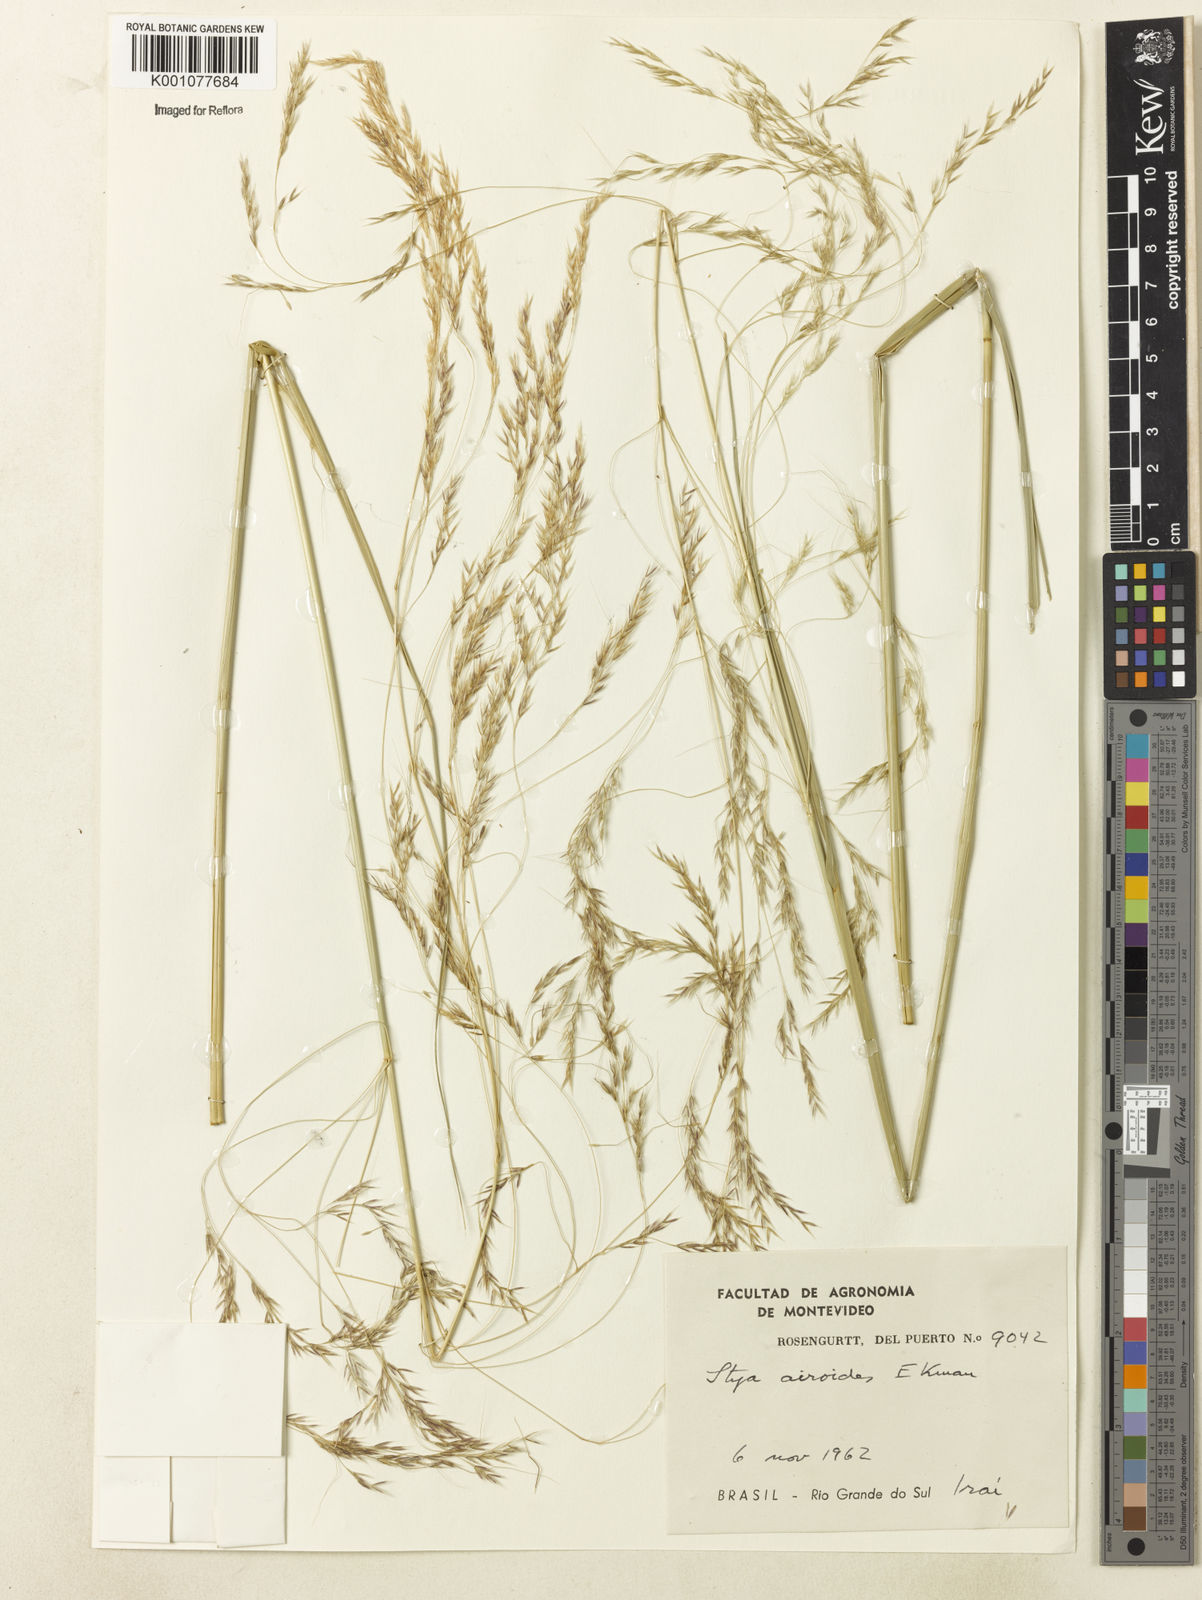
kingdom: Plantae
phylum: Tracheophyta
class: Liliopsida
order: Poales
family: Poaceae
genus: Jarava
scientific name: Jarava filifolia
